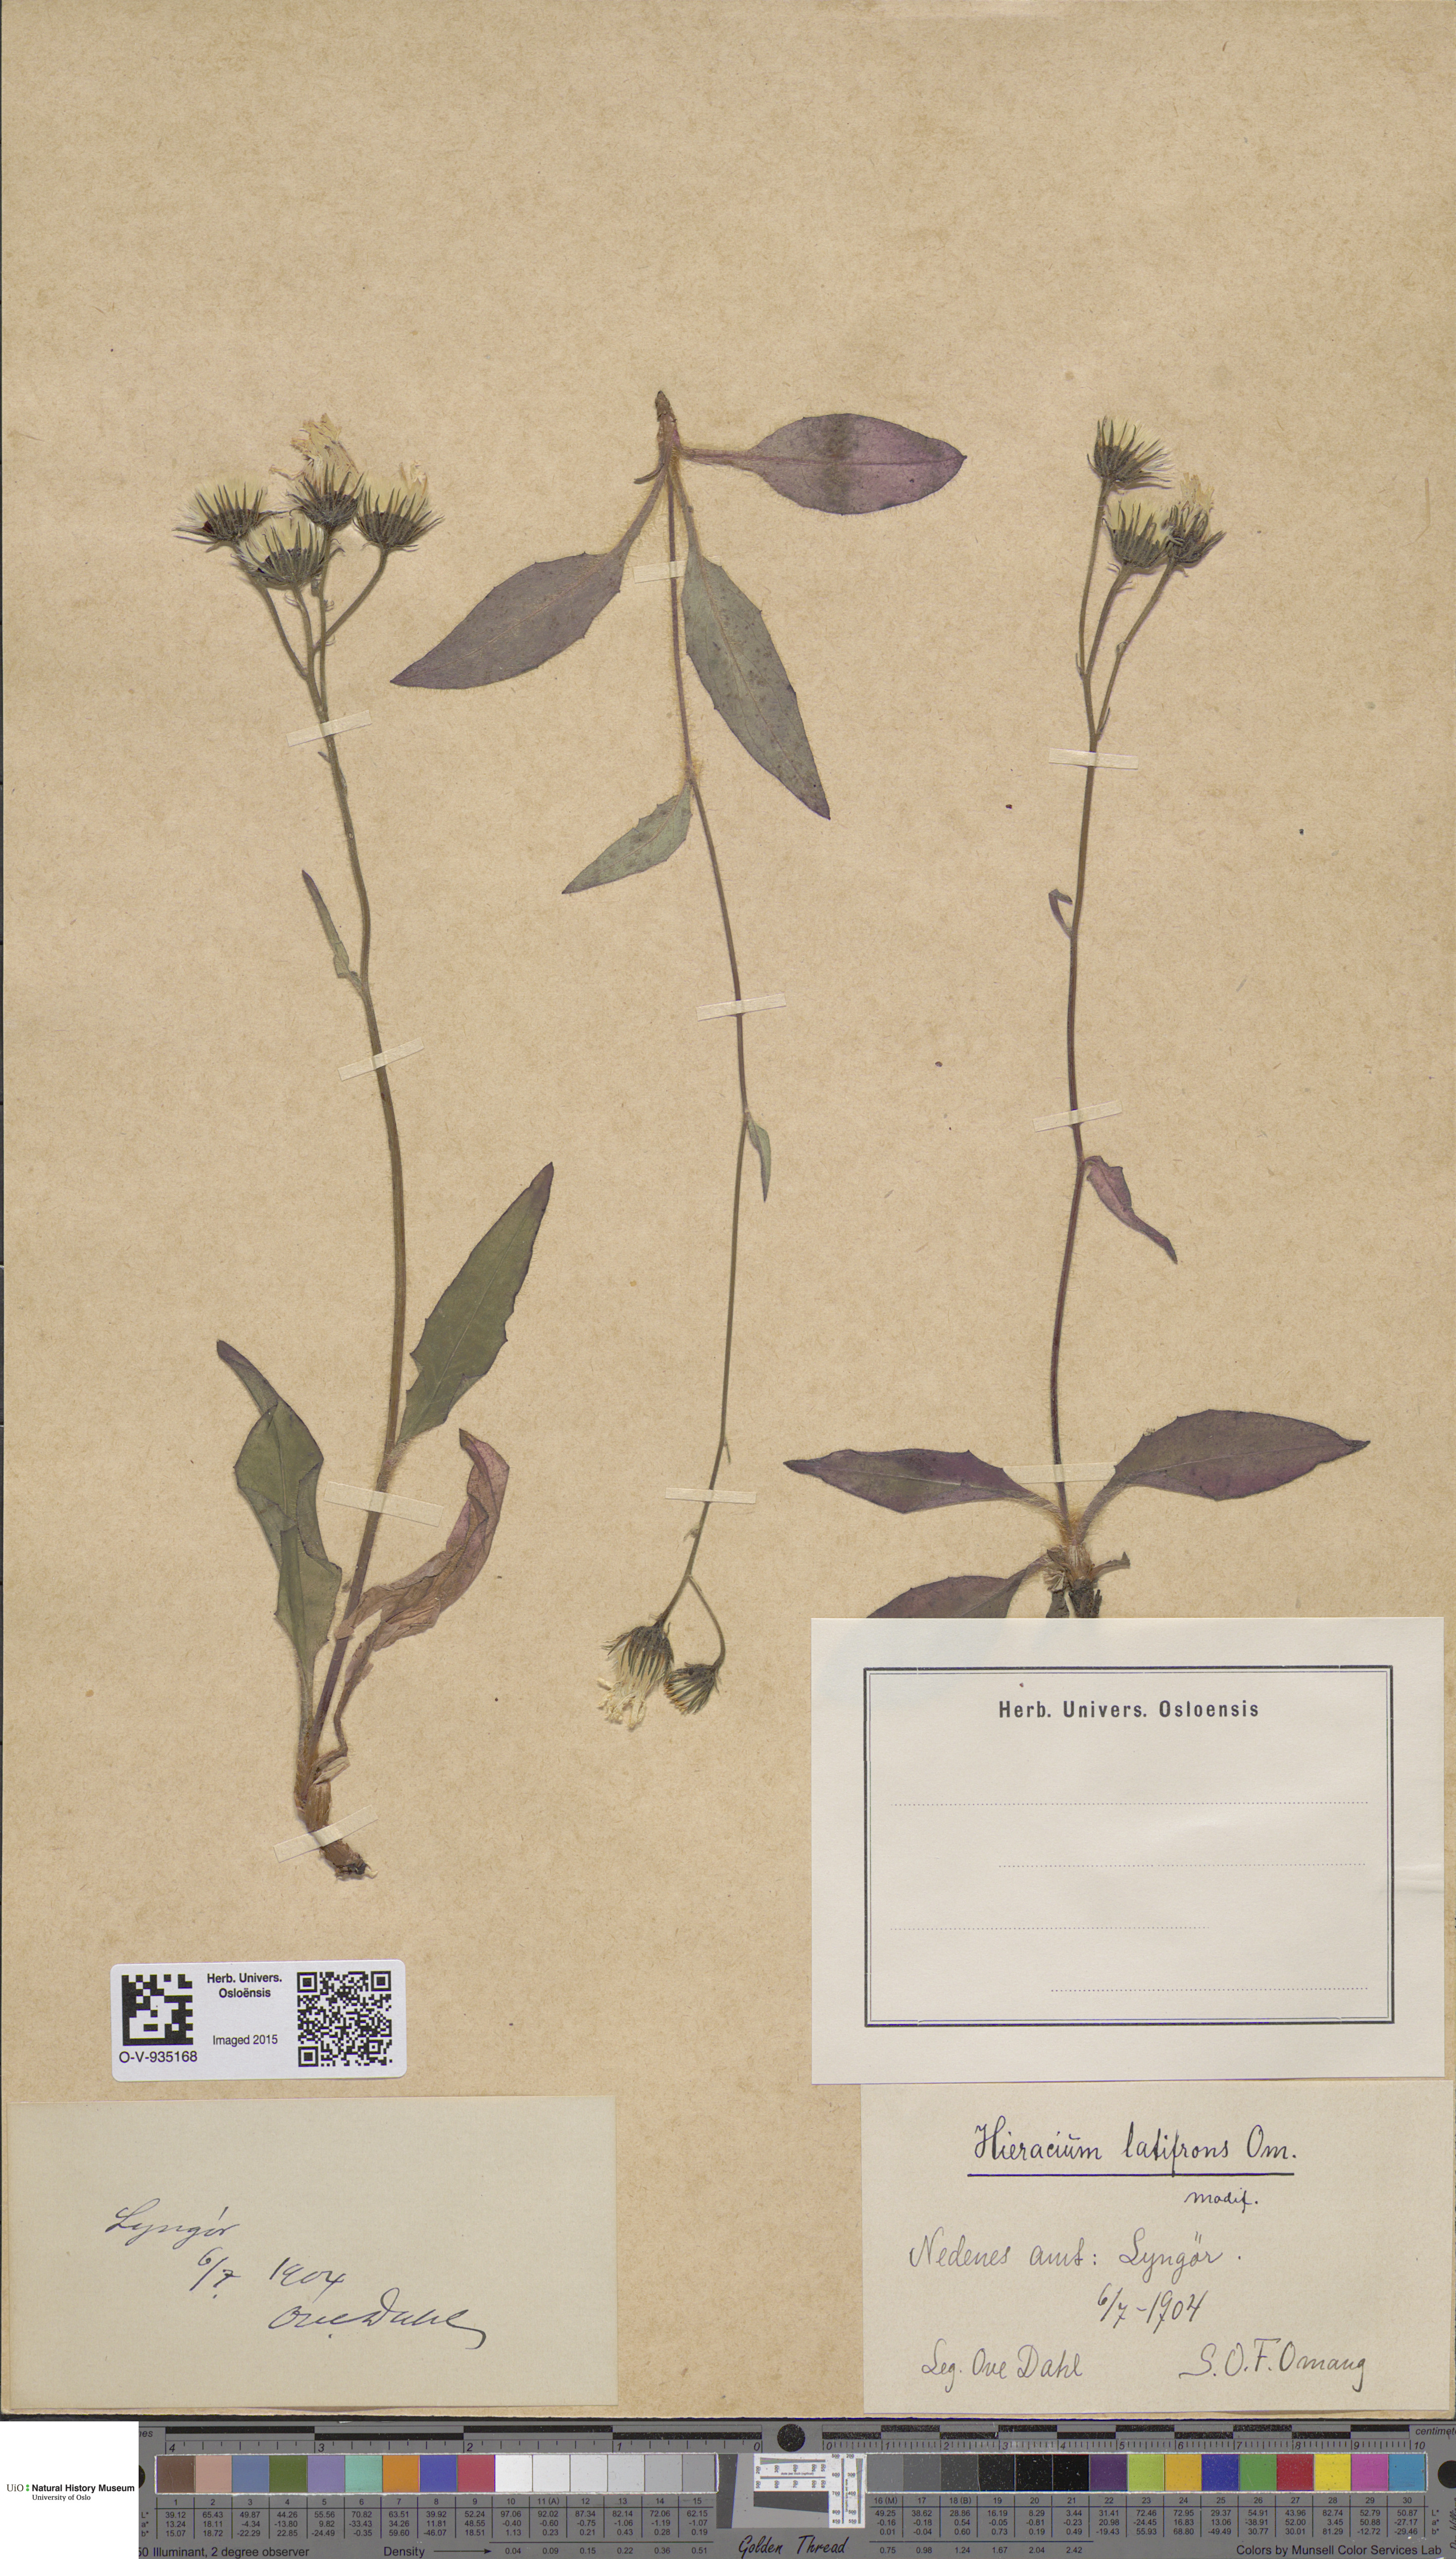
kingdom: Plantae
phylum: Tracheophyta
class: Magnoliopsida
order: Asterales
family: Asteraceae
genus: Hieracium
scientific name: Hieracium saxifragum
